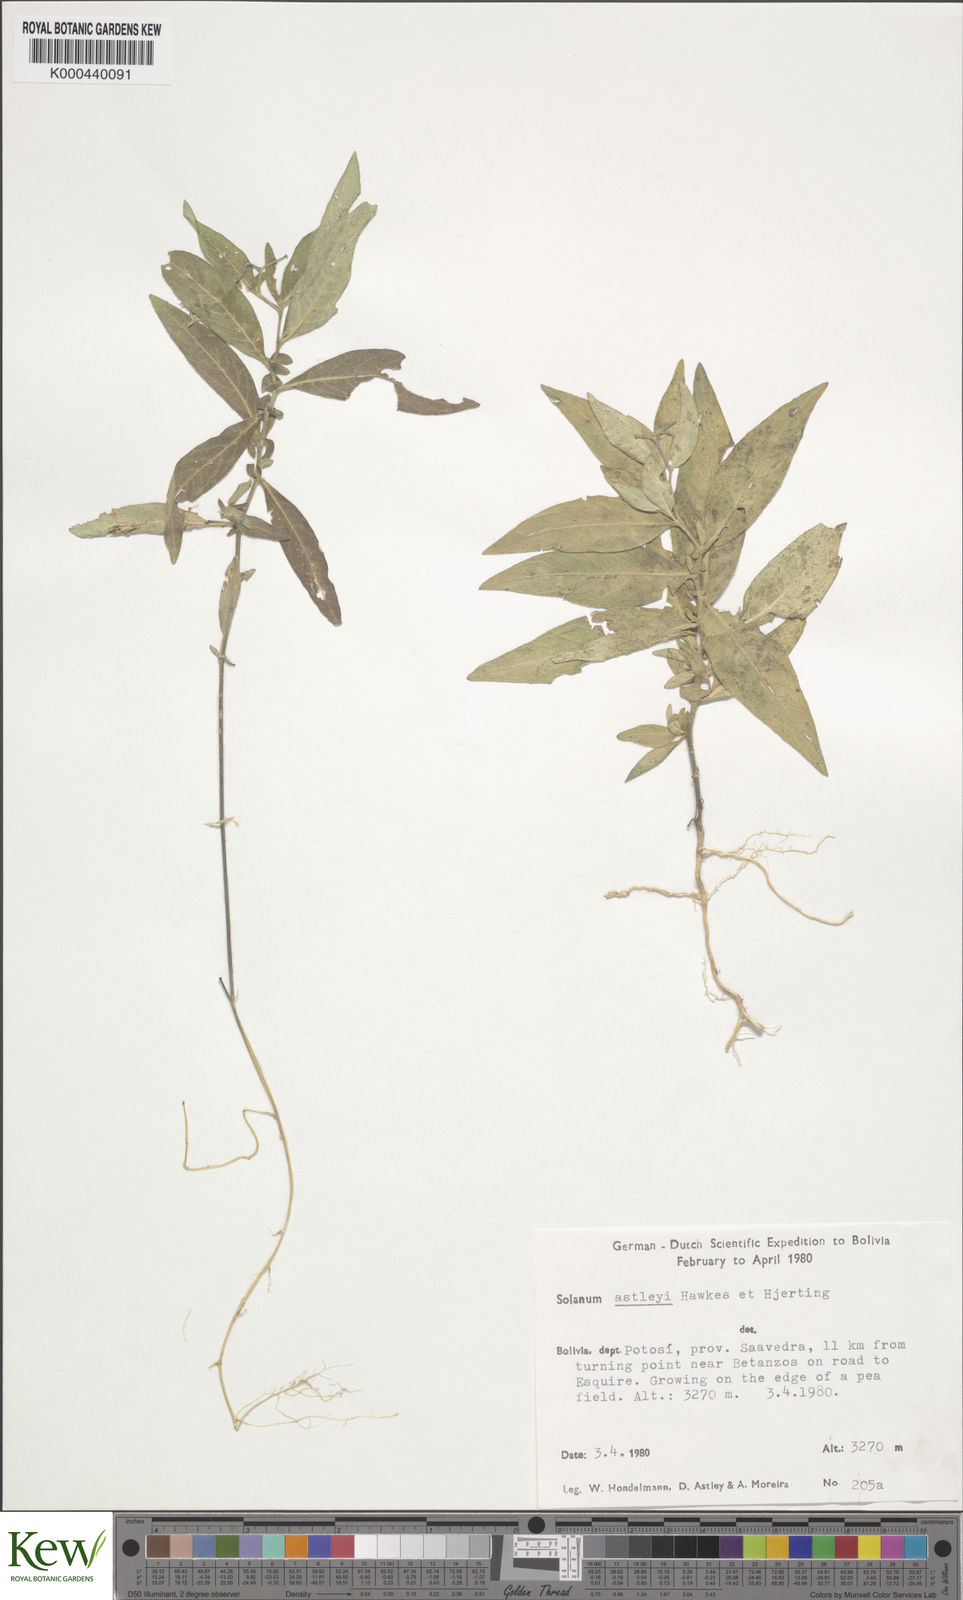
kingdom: Plantae
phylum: Tracheophyta
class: Magnoliopsida
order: Solanales
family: Solanaceae
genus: Solanum
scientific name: Solanum boliviense
